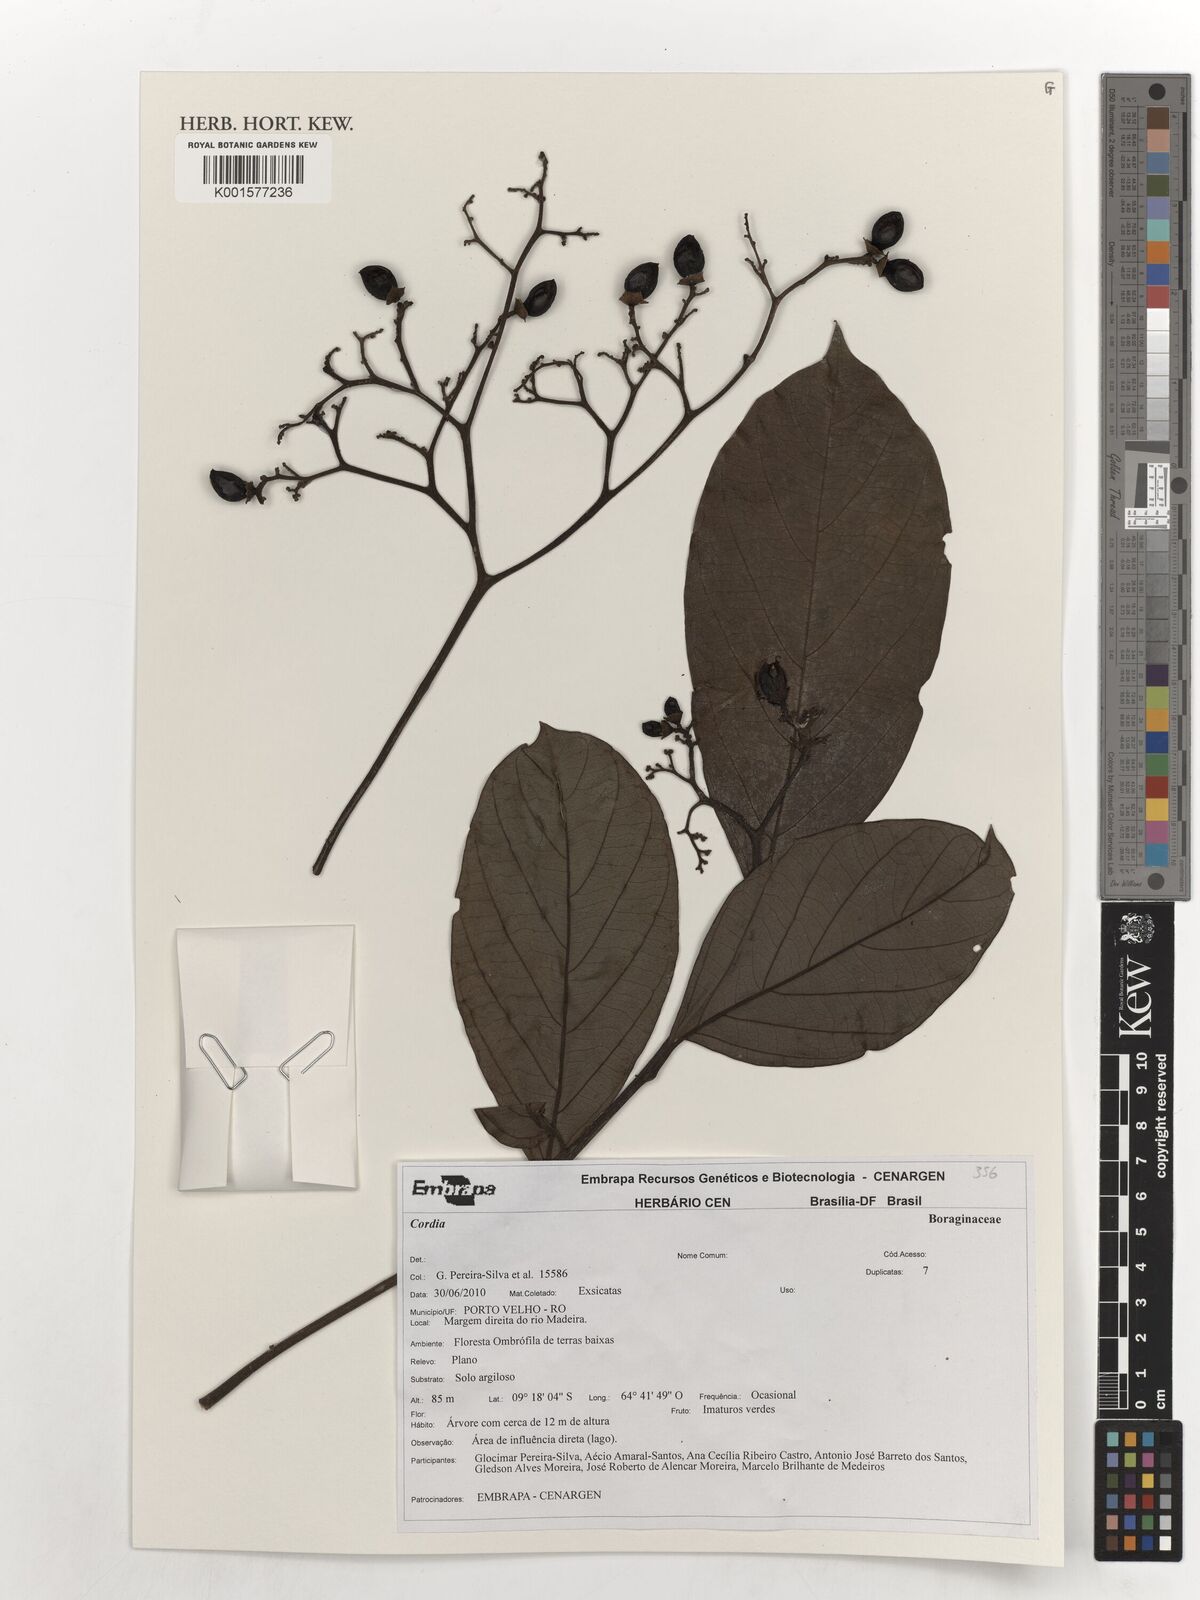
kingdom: Plantae
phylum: Tracheophyta
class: Magnoliopsida
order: Boraginales
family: Cordiaceae
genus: Cordia
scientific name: Cordia
